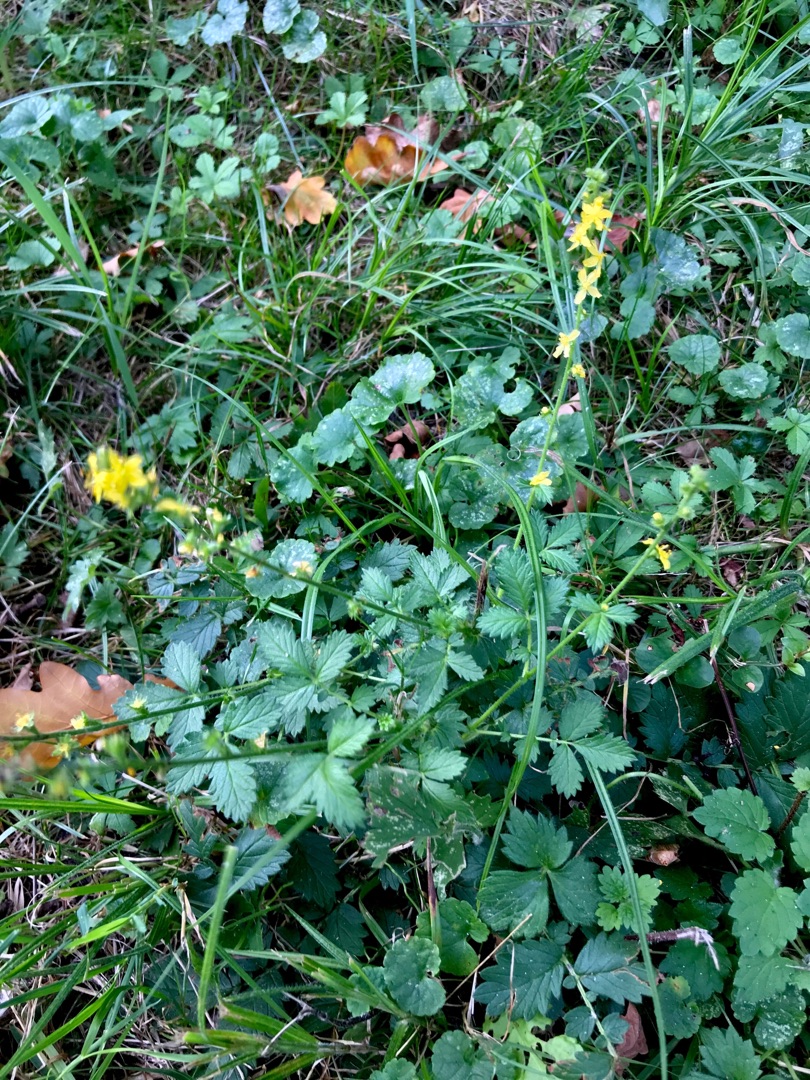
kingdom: Plantae
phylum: Tracheophyta
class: Magnoliopsida
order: Rosales
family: Rosaceae
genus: Agrimonia
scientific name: Agrimonia eupatoria
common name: Almindelig agermåne
